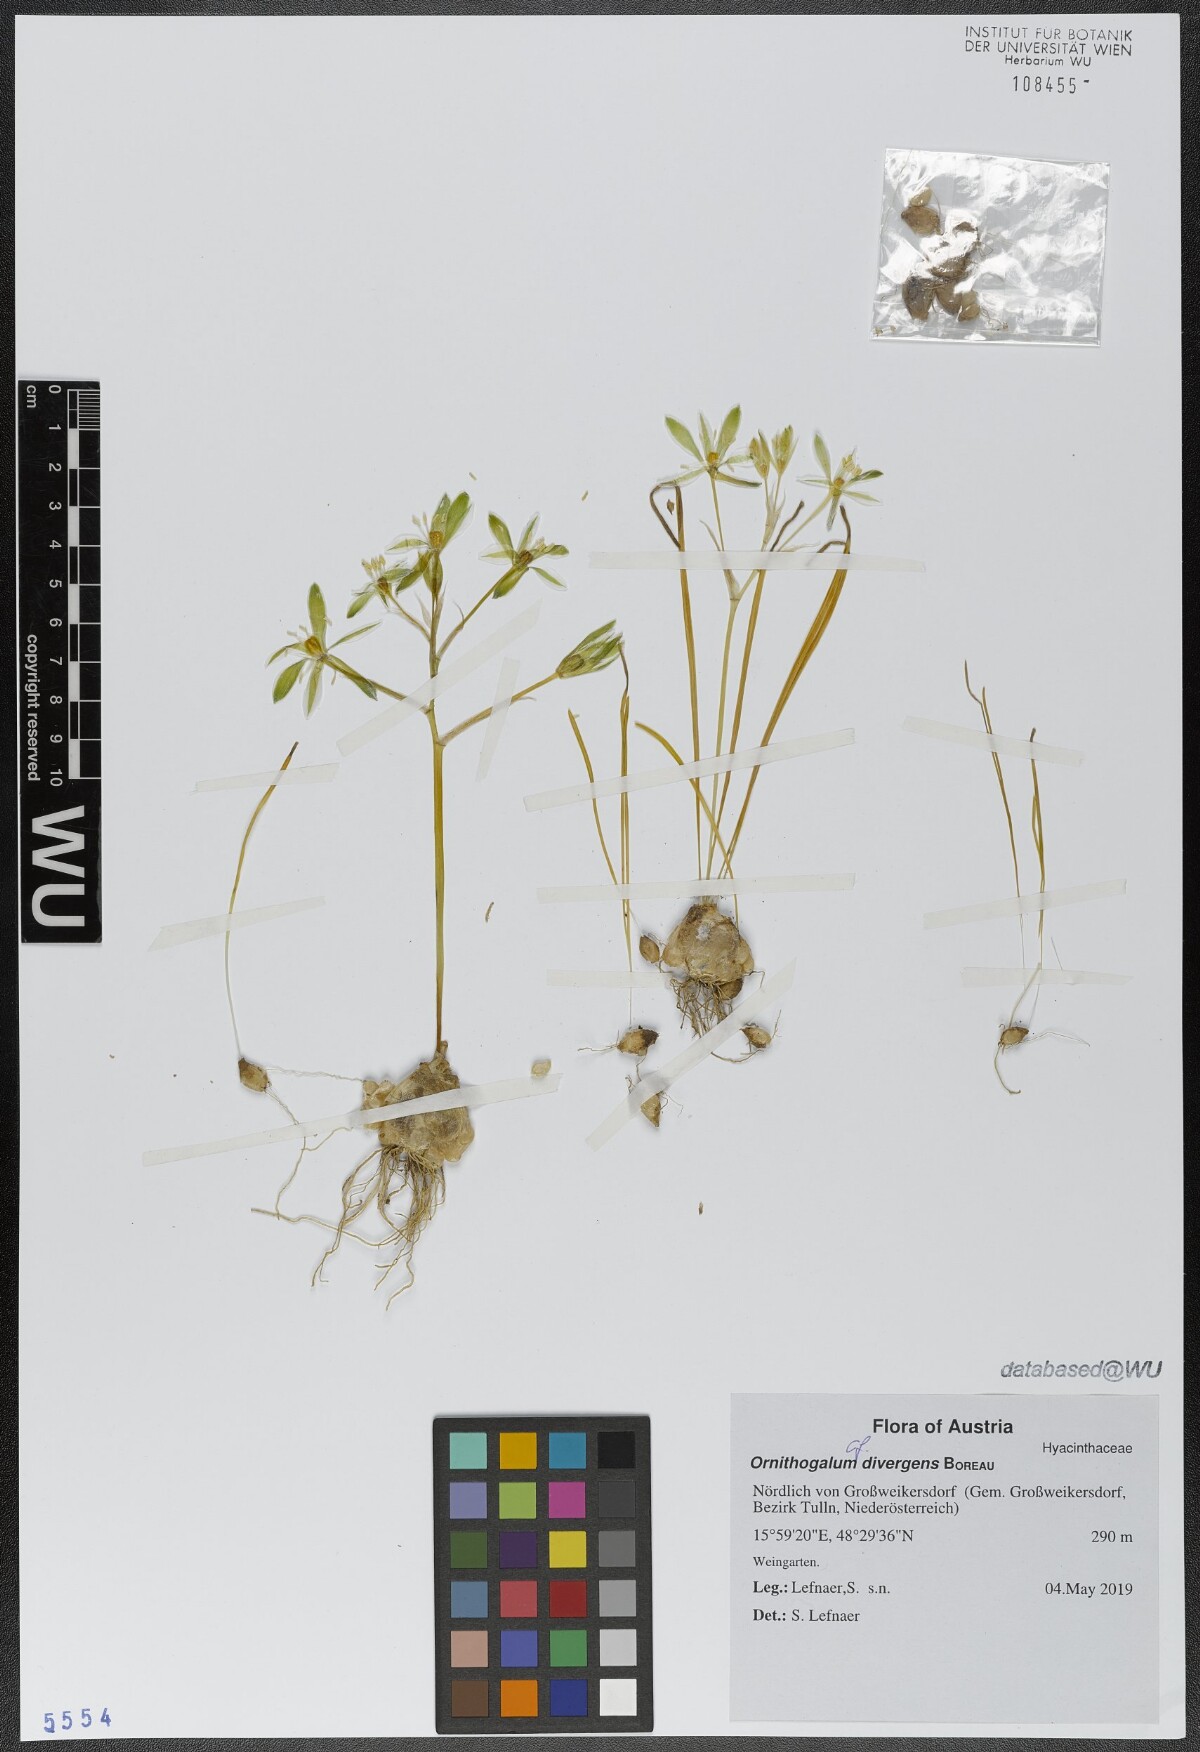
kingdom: Plantae
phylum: Tracheophyta
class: Liliopsida
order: Asparagales
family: Asparagaceae
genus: Ornithogalum
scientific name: Ornithogalum divergens
